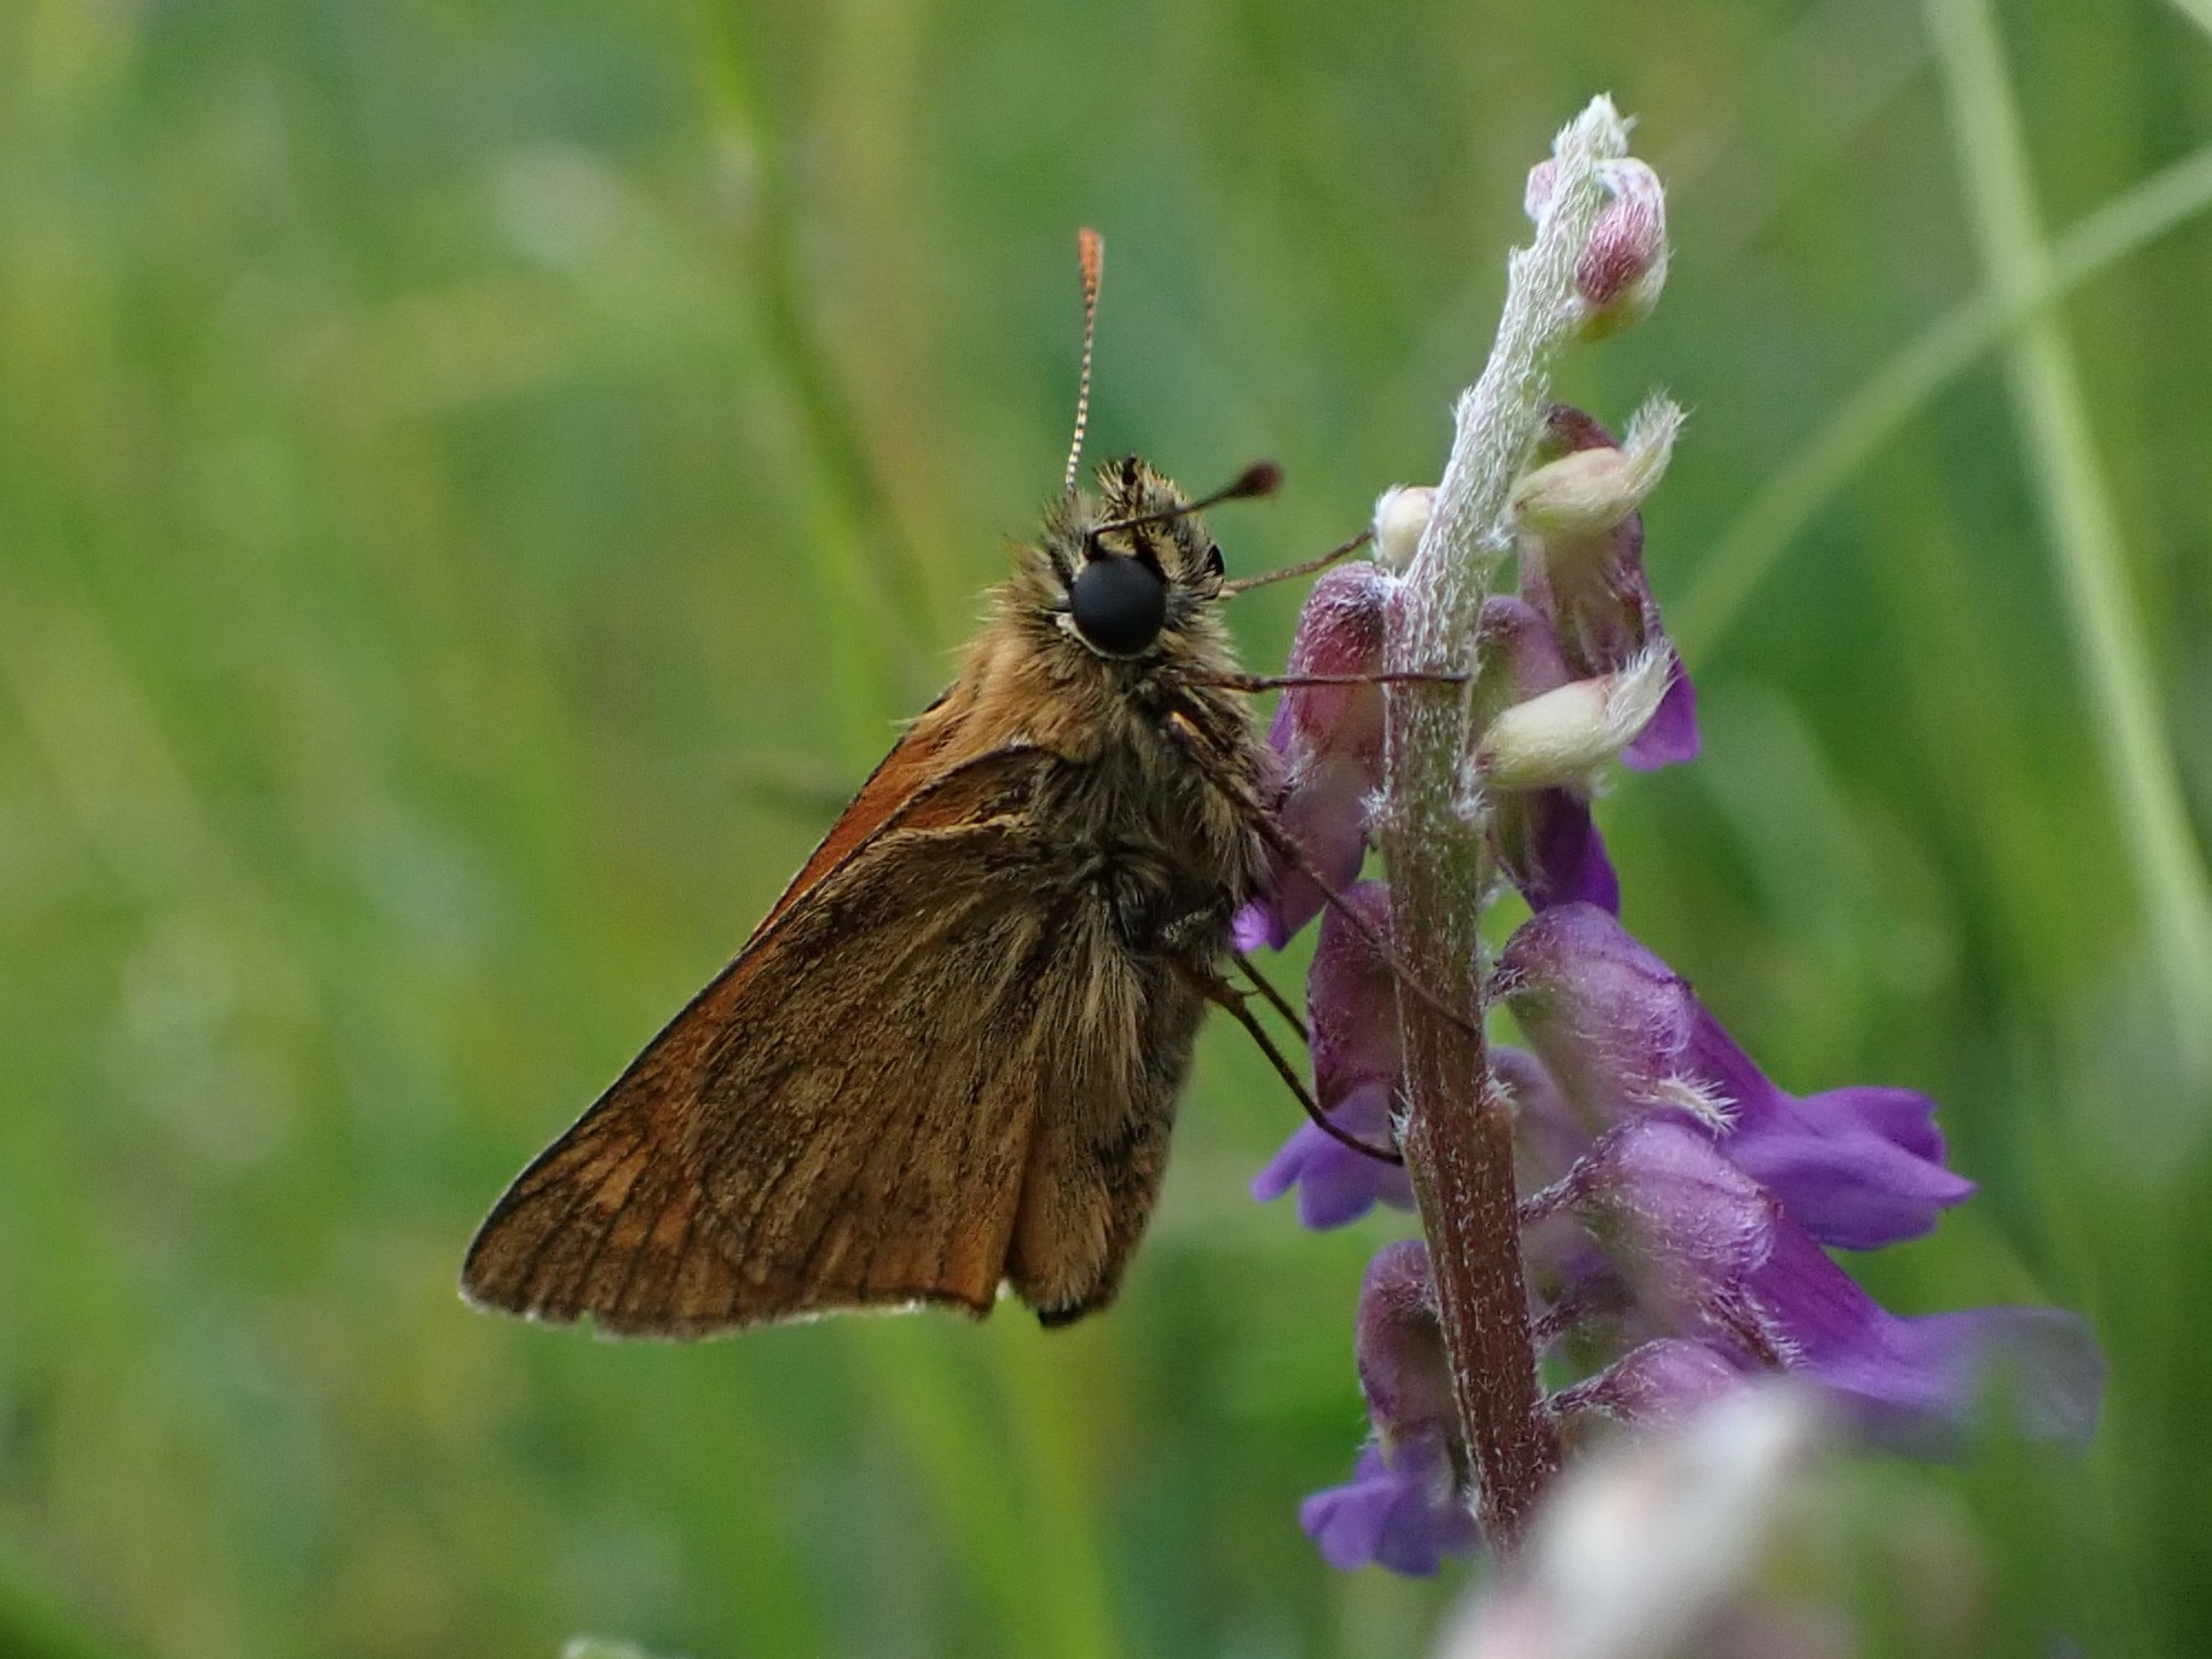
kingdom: Animalia
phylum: Arthropoda
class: Insecta
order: Lepidoptera
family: Hesperiidae
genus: Ochlodes
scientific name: Ochlodes venata
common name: Stor bredpande
